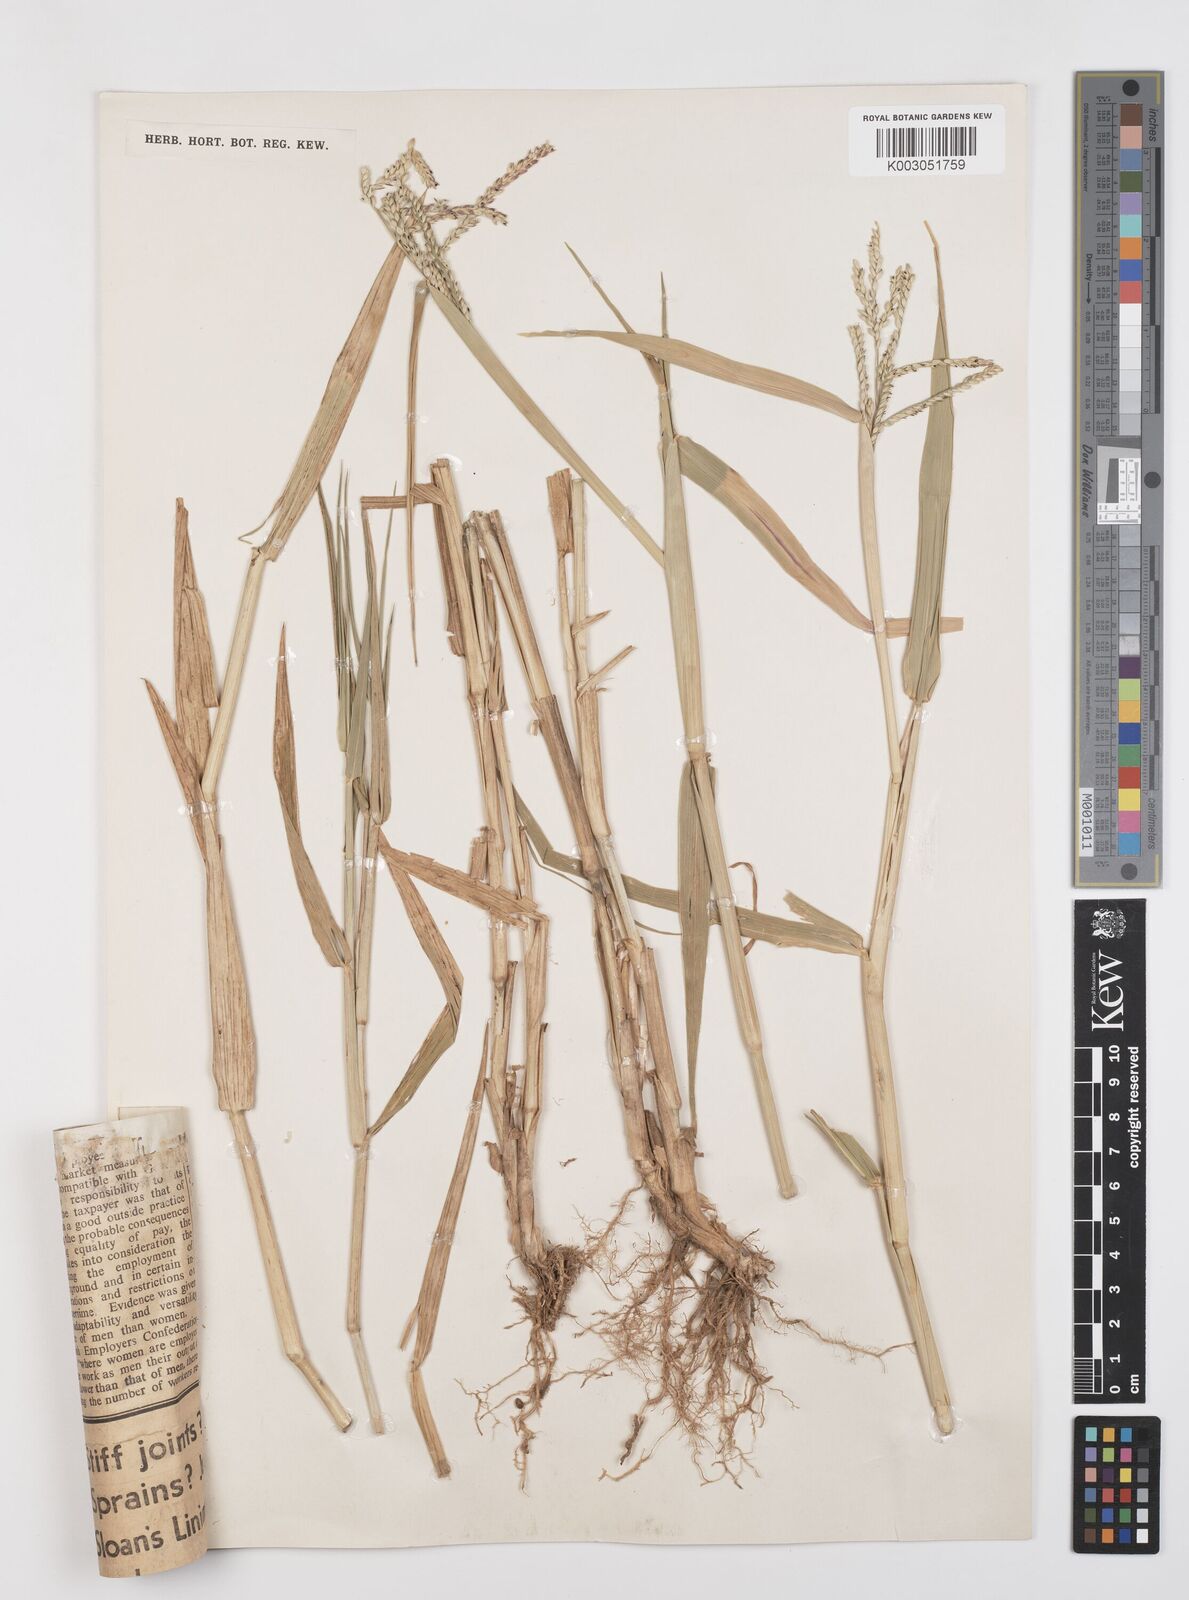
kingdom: Plantae
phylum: Tracheophyta
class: Liliopsida
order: Poales
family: Poaceae
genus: Urochloa
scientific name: Urochloa arrecta
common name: African signalgrass
